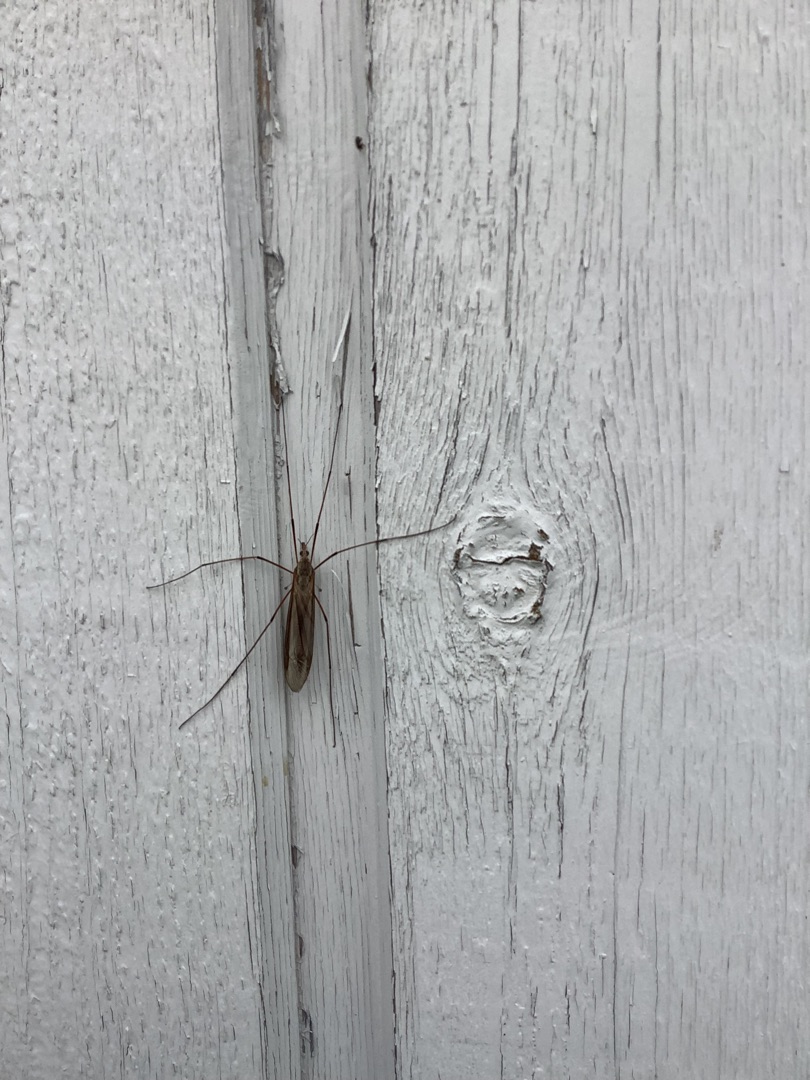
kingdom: Animalia
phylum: Arthropoda
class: Insecta
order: Diptera
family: Tipulidae
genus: Tipula
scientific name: Tipula
